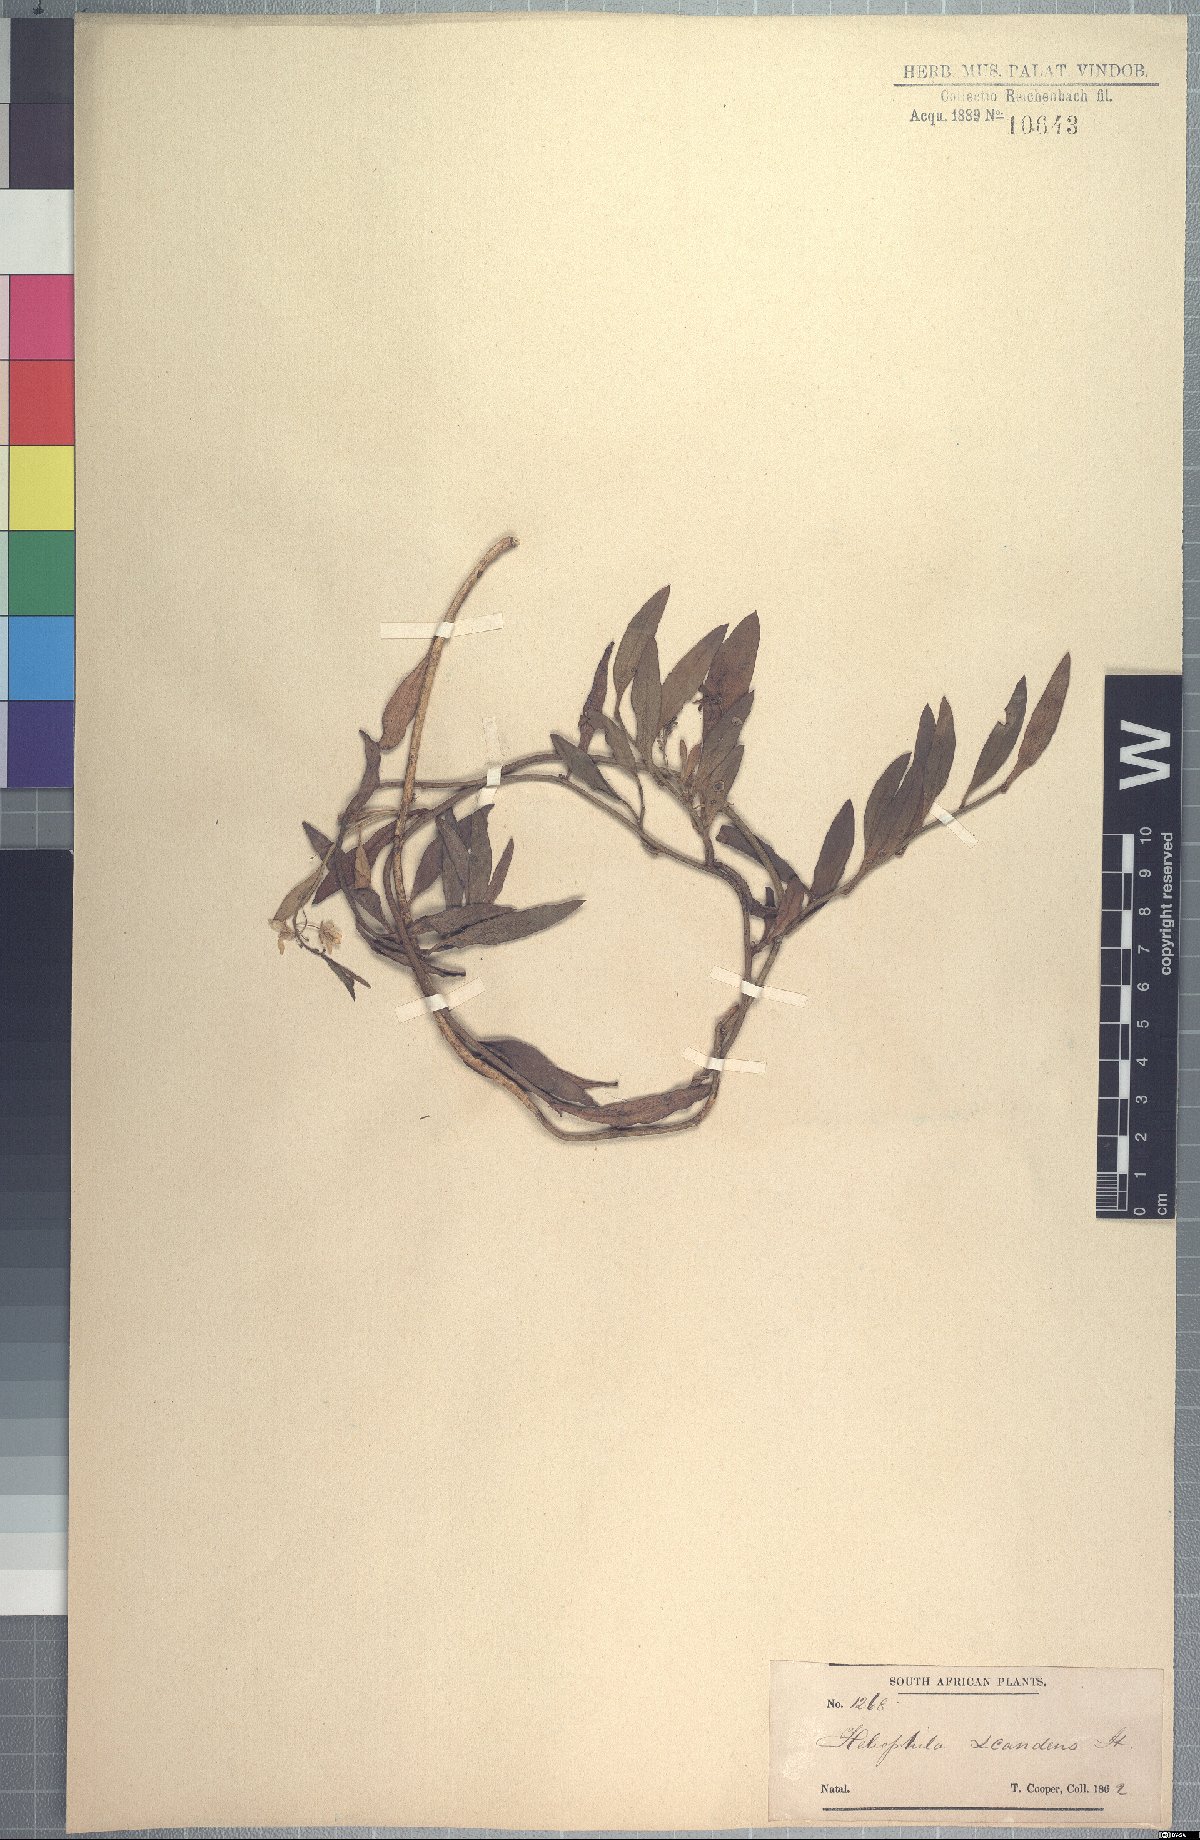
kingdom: Plantae
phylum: Tracheophyta
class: Magnoliopsida
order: Brassicales
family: Brassicaceae
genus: Heliophila
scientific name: Heliophila scandens
